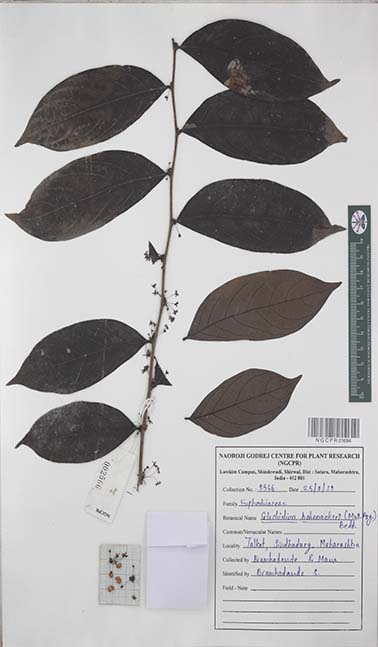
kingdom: Plantae
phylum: Tracheophyta
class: Magnoliopsida
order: Malpighiales
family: Euphorbiaceae
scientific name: Euphorbiaceae
